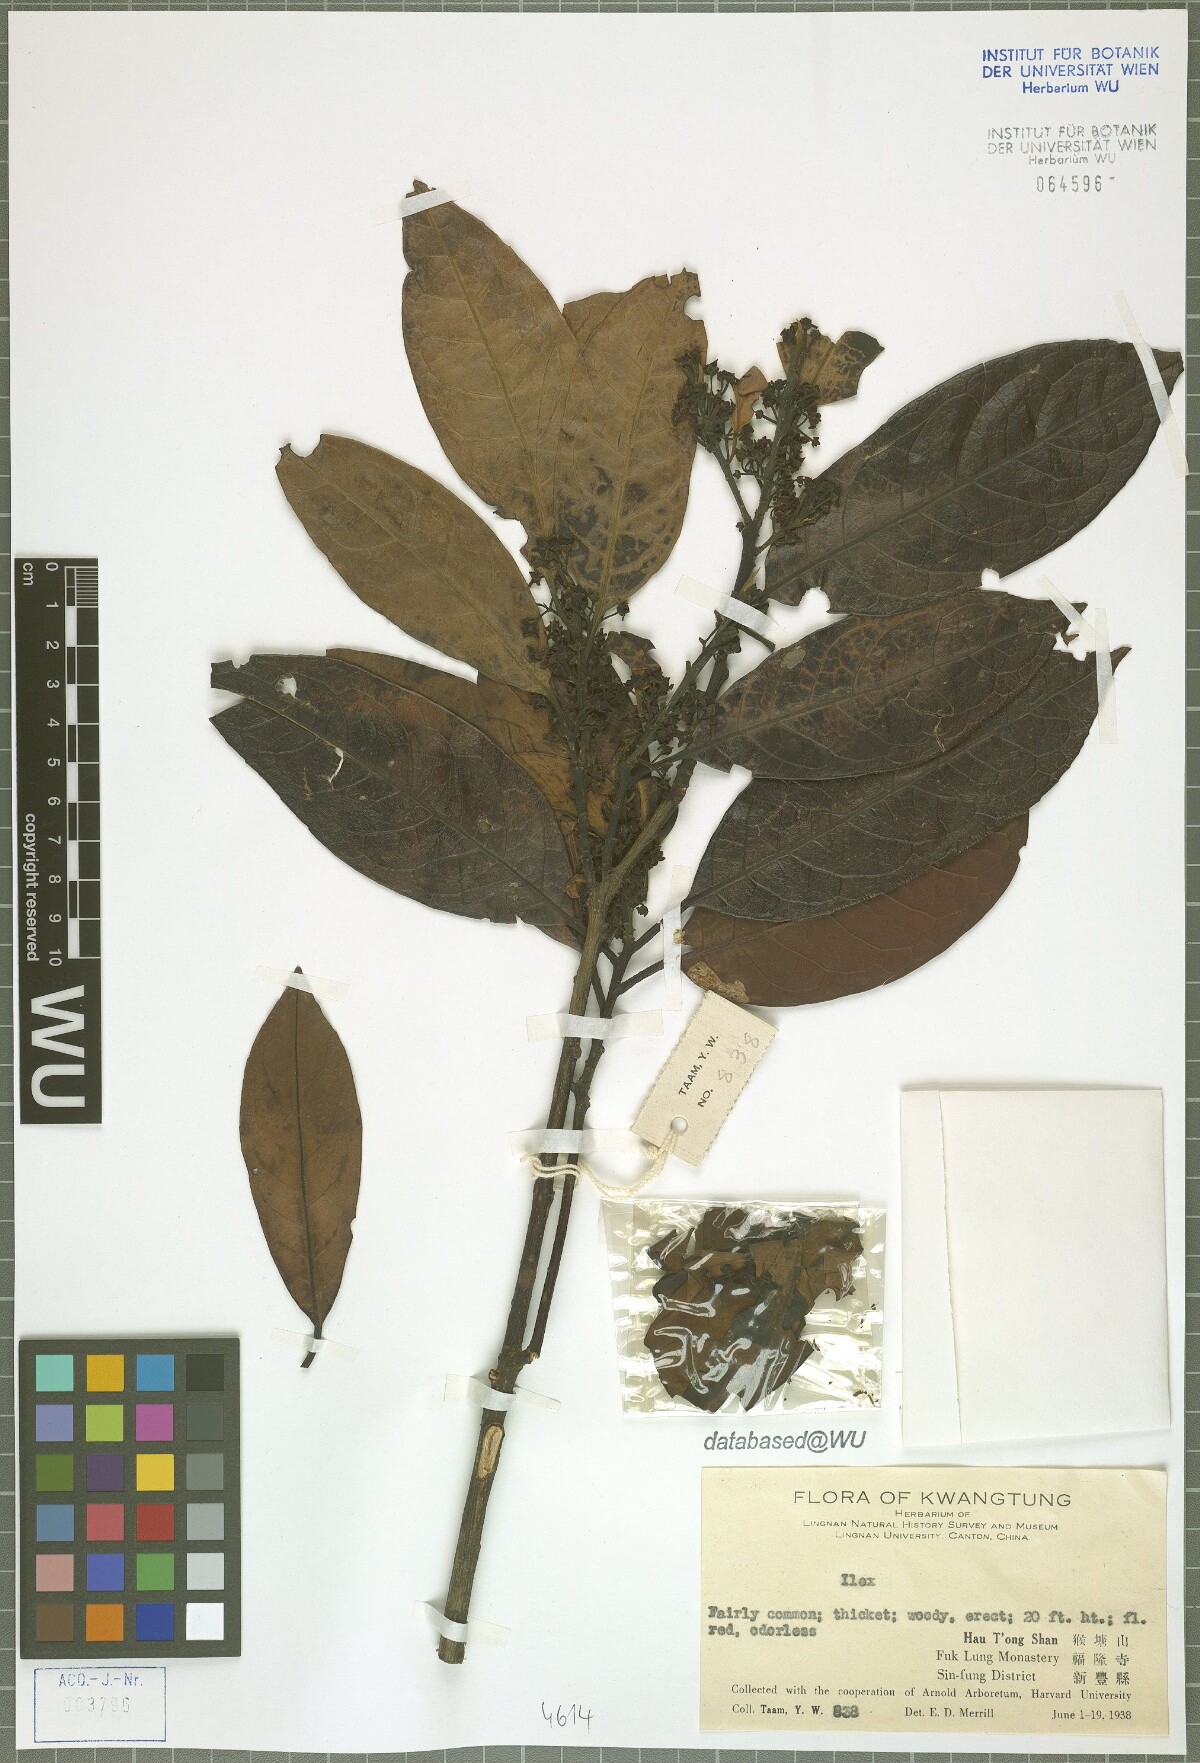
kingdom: Plantae
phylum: Tracheophyta
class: Magnoliopsida
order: Aquifoliales
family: Aquifoliaceae
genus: Ilex
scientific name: Ilex
